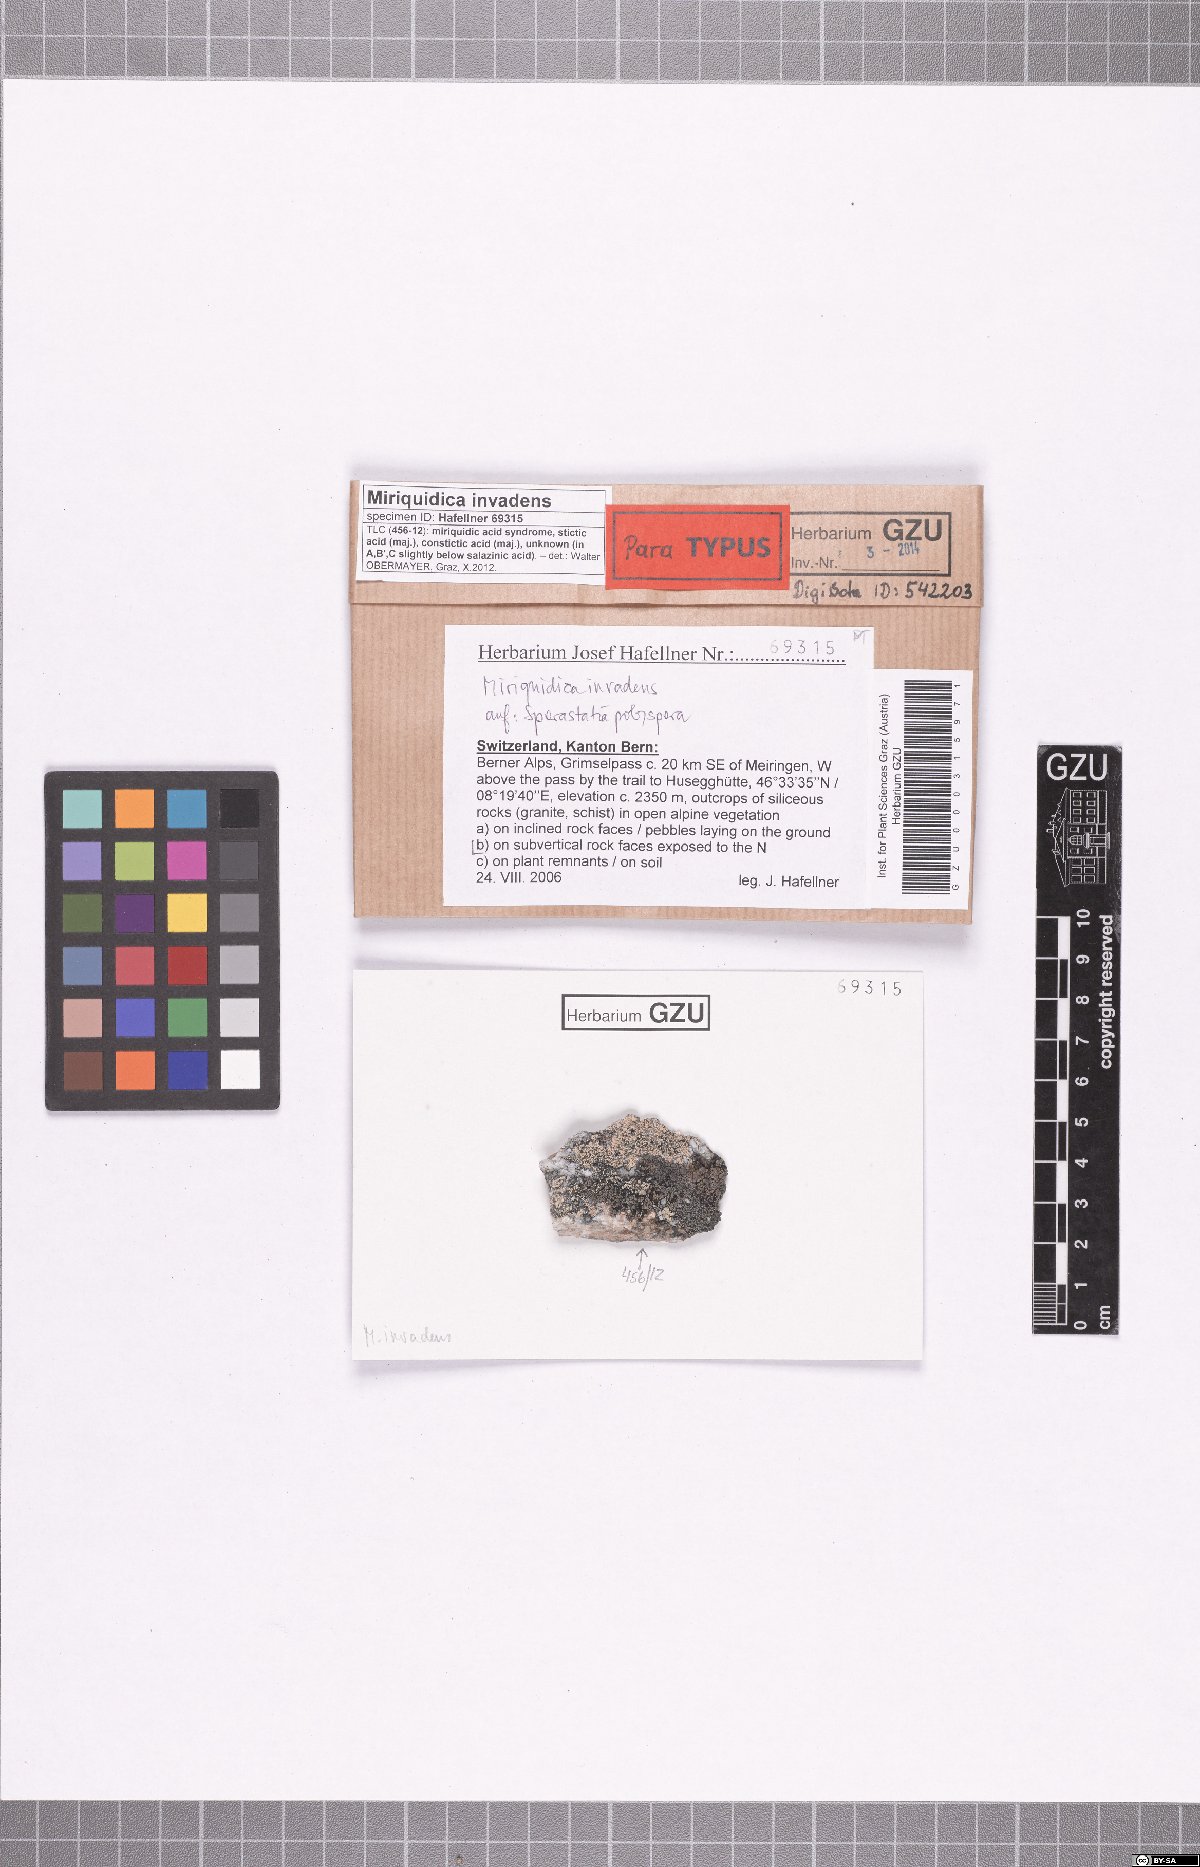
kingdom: Fungi
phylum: Ascomycota
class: Lecanoromycetes
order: Lecanorales
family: Lecanoraceae
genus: Miriquidica
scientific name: Miriquidica invadens
